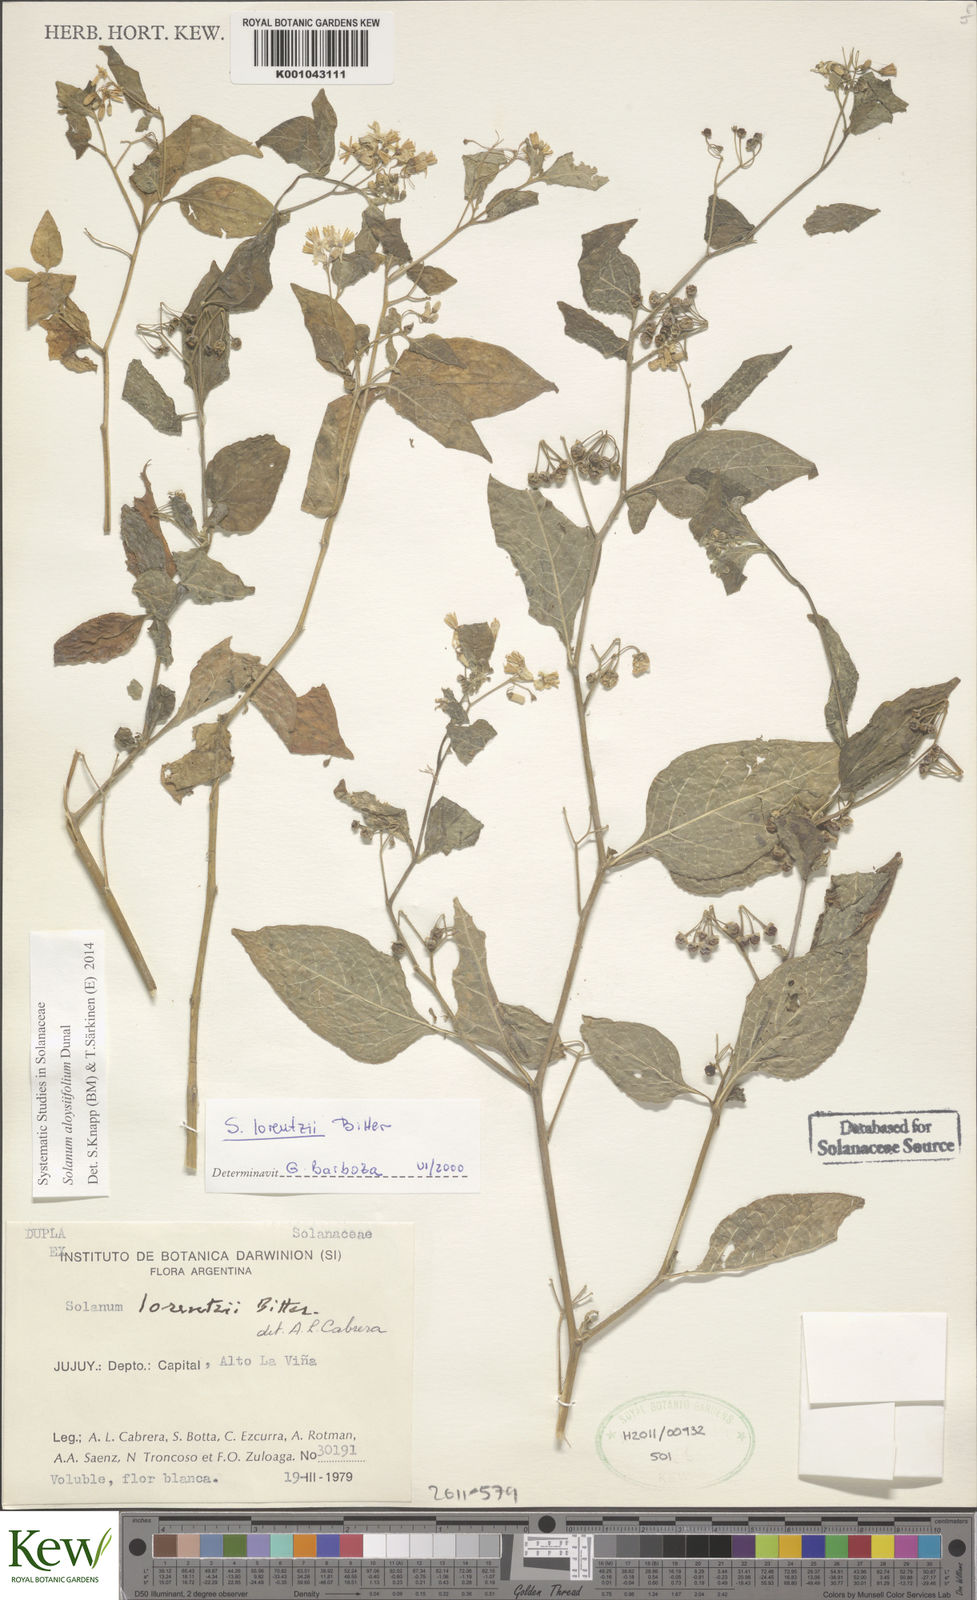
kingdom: Plantae
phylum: Tracheophyta
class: Magnoliopsida
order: Solanales
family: Solanaceae
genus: Solanum
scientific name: Solanum aloysiifolium
